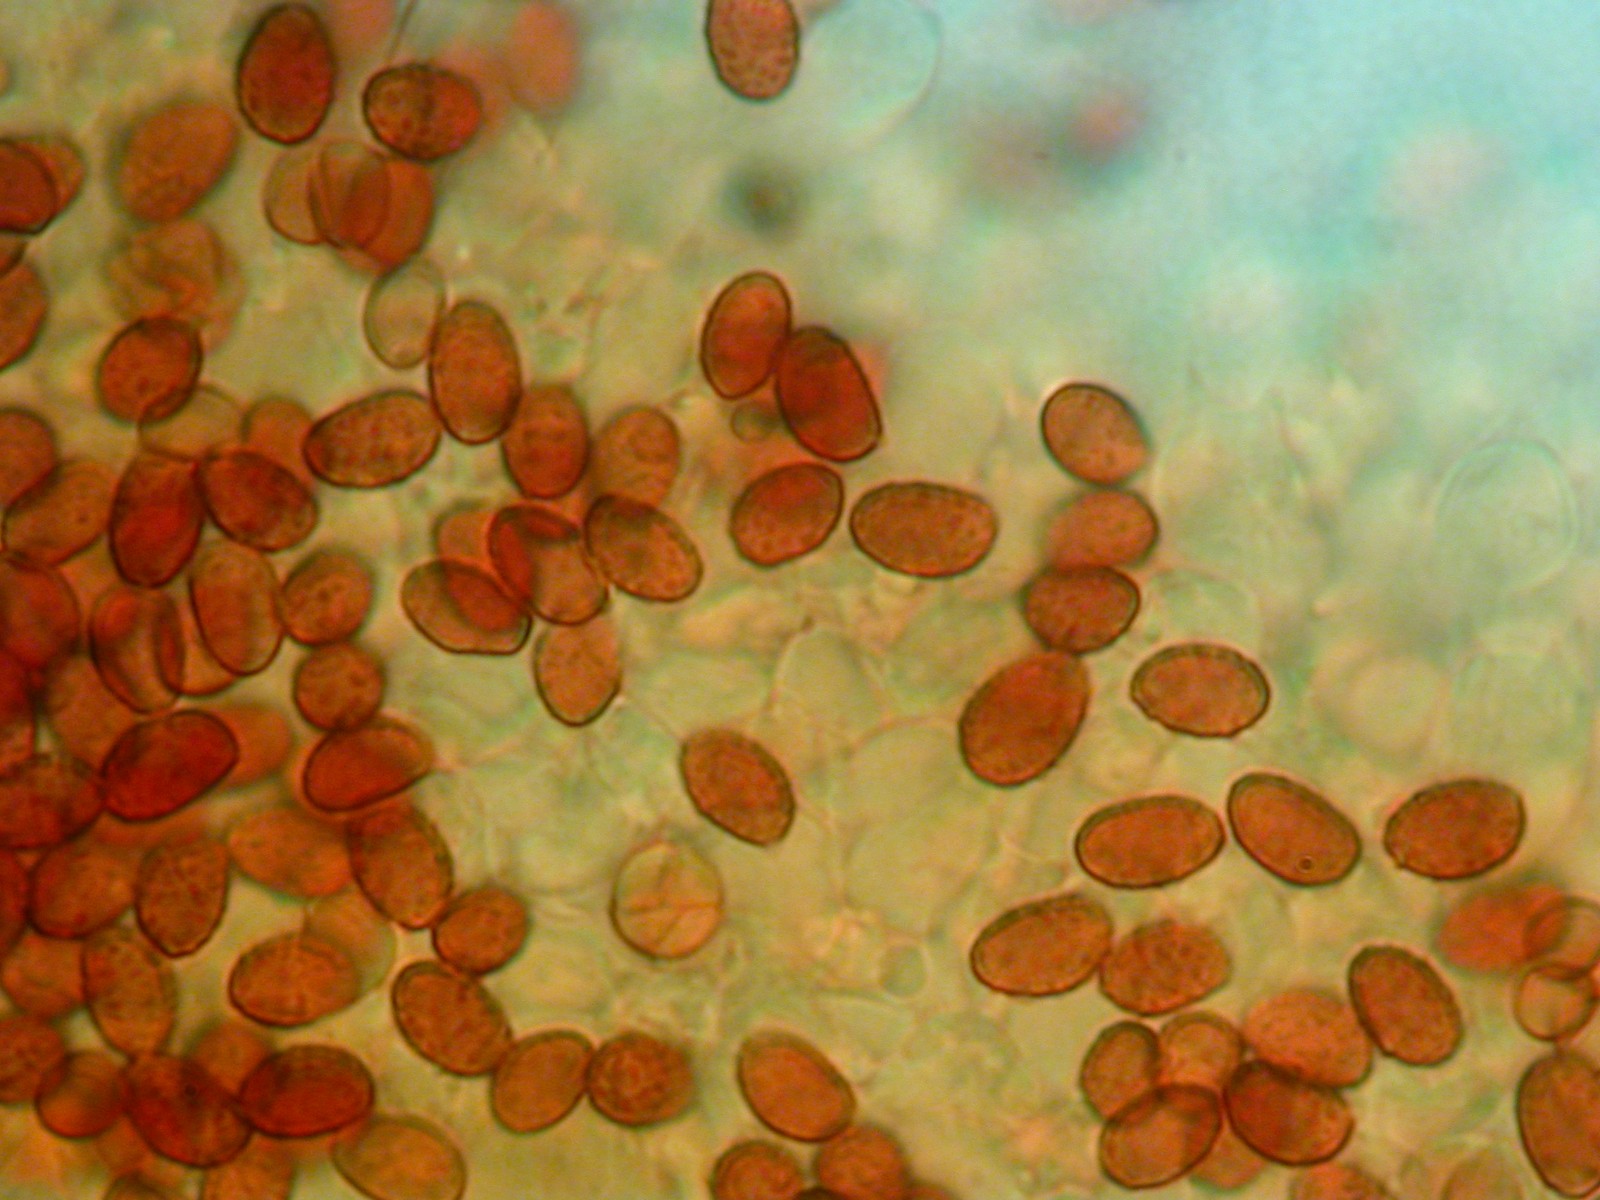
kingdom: Fungi
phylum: Basidiomycota
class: Agaricomycetes
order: Agaricales
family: Cortinariaceae
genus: Cortinarius
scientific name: Cortinarius nanus
